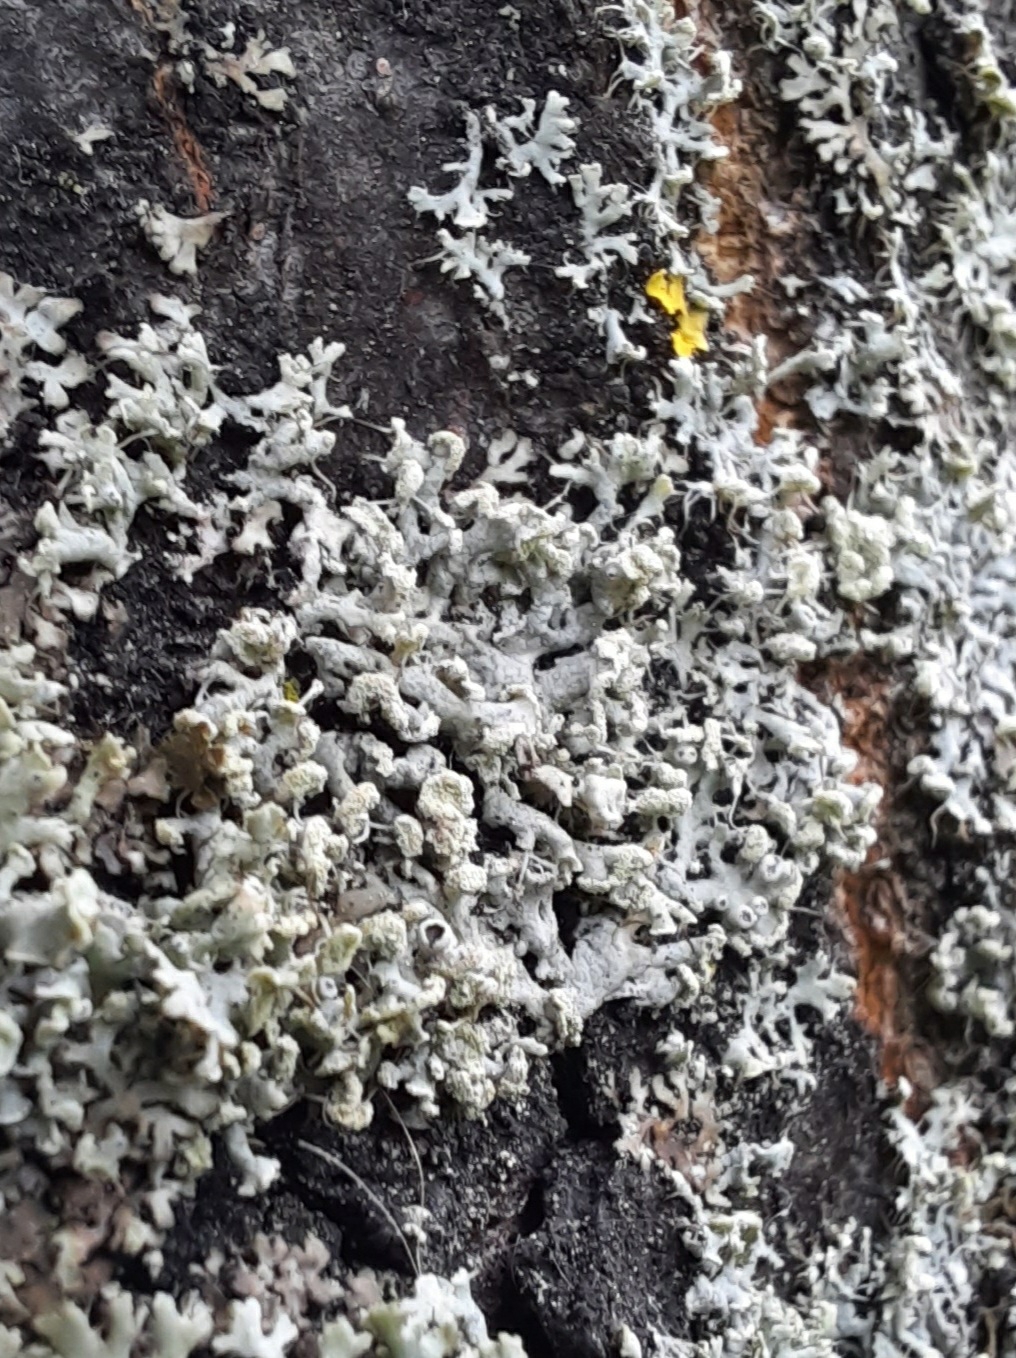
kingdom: Fungi
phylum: Ascomycota
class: Lecanoromycetes
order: Caliciales
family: Physciaceae
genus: Physcia
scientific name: Physcia tenella
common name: spæd rosetlav
